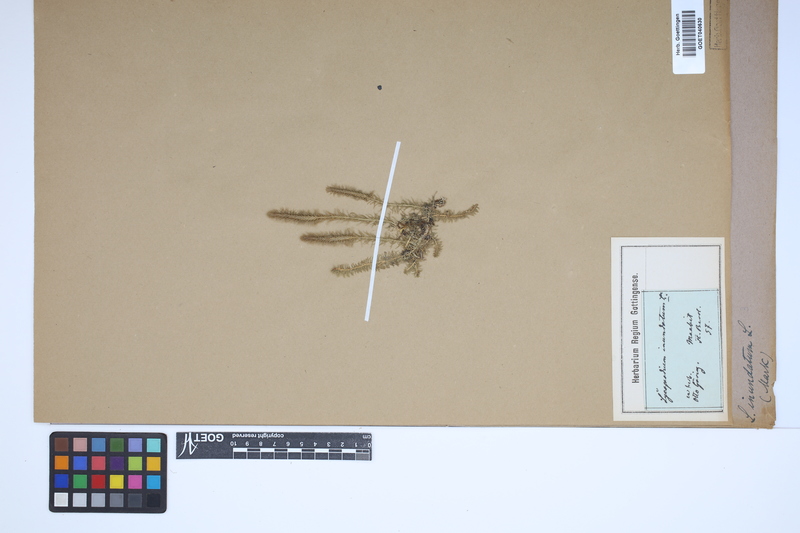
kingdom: Plantae
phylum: Tracheophyta
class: Lycopodiopsida
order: Lycopodiales
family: Lycopodiaceae
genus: Lycopodiella
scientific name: Lycopodiella inundata
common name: Marsh clubmoss
